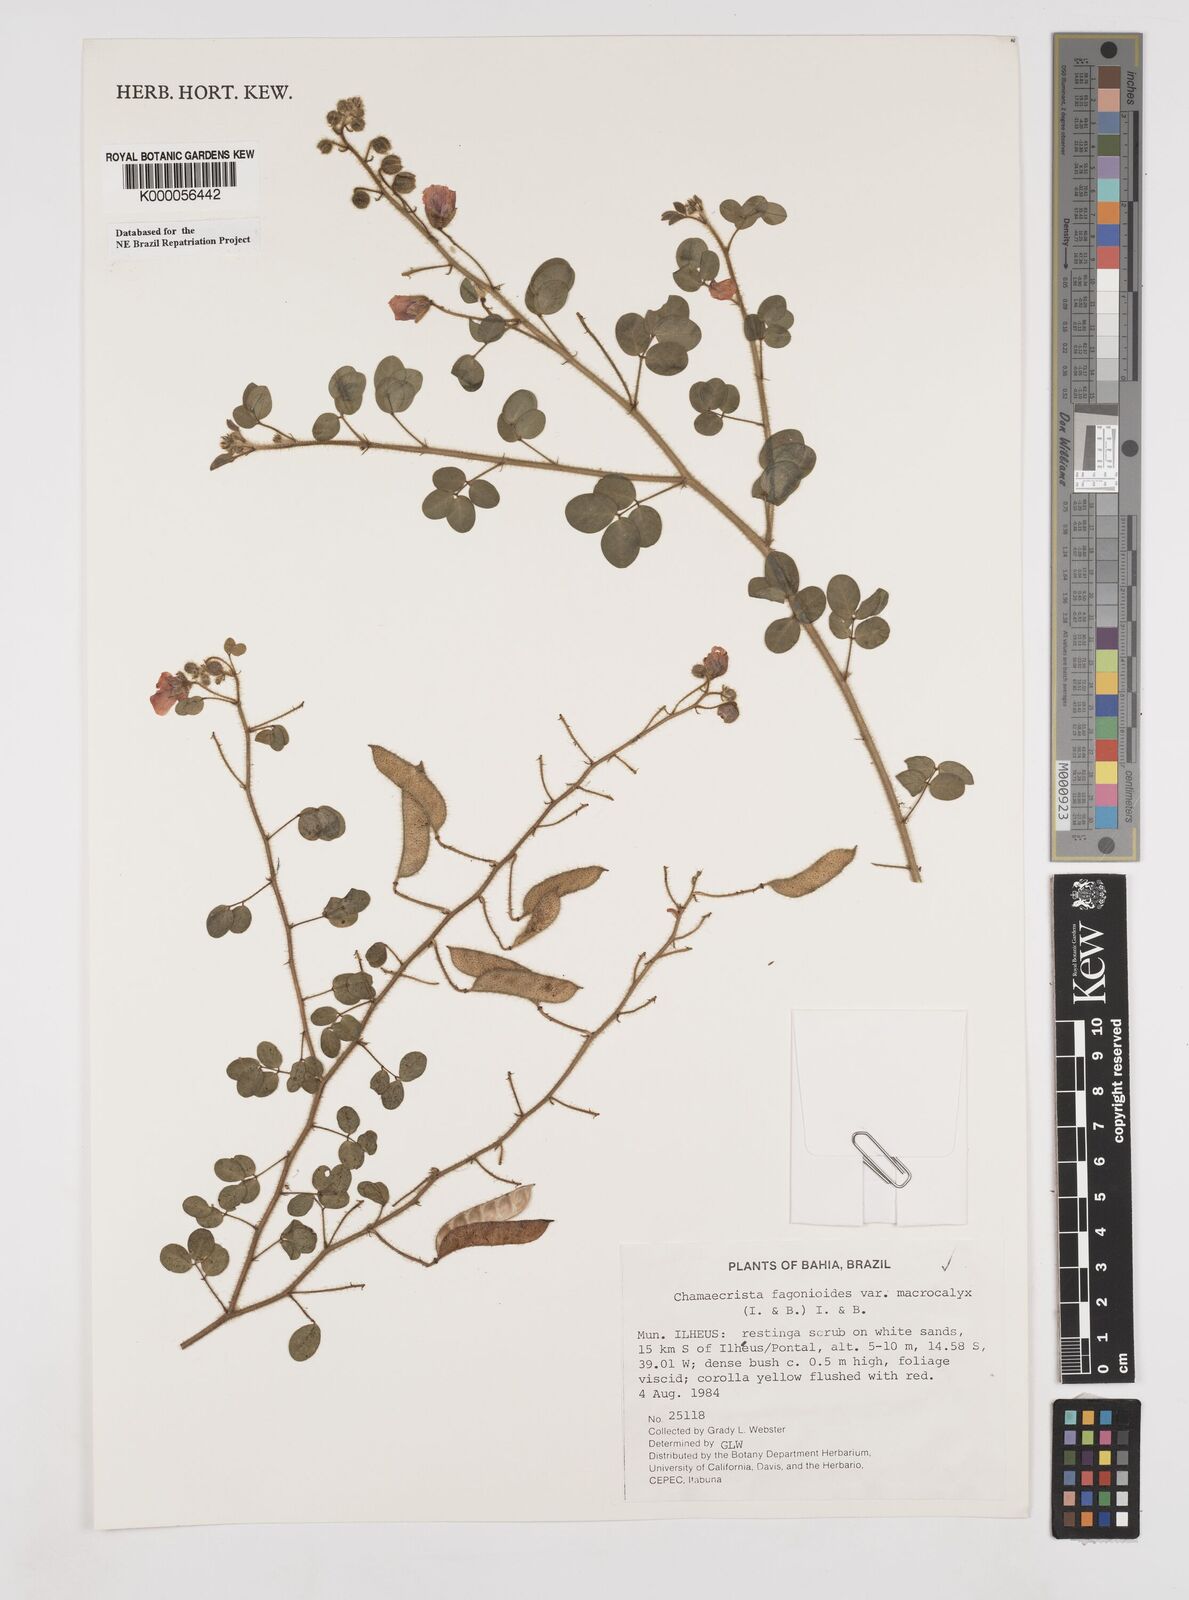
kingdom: Plantae
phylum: Tracheophyta
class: Magnoliopsida
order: Fabales
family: Fabaceae
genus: Chamaecrista
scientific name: Chamaecrista fagonioides
